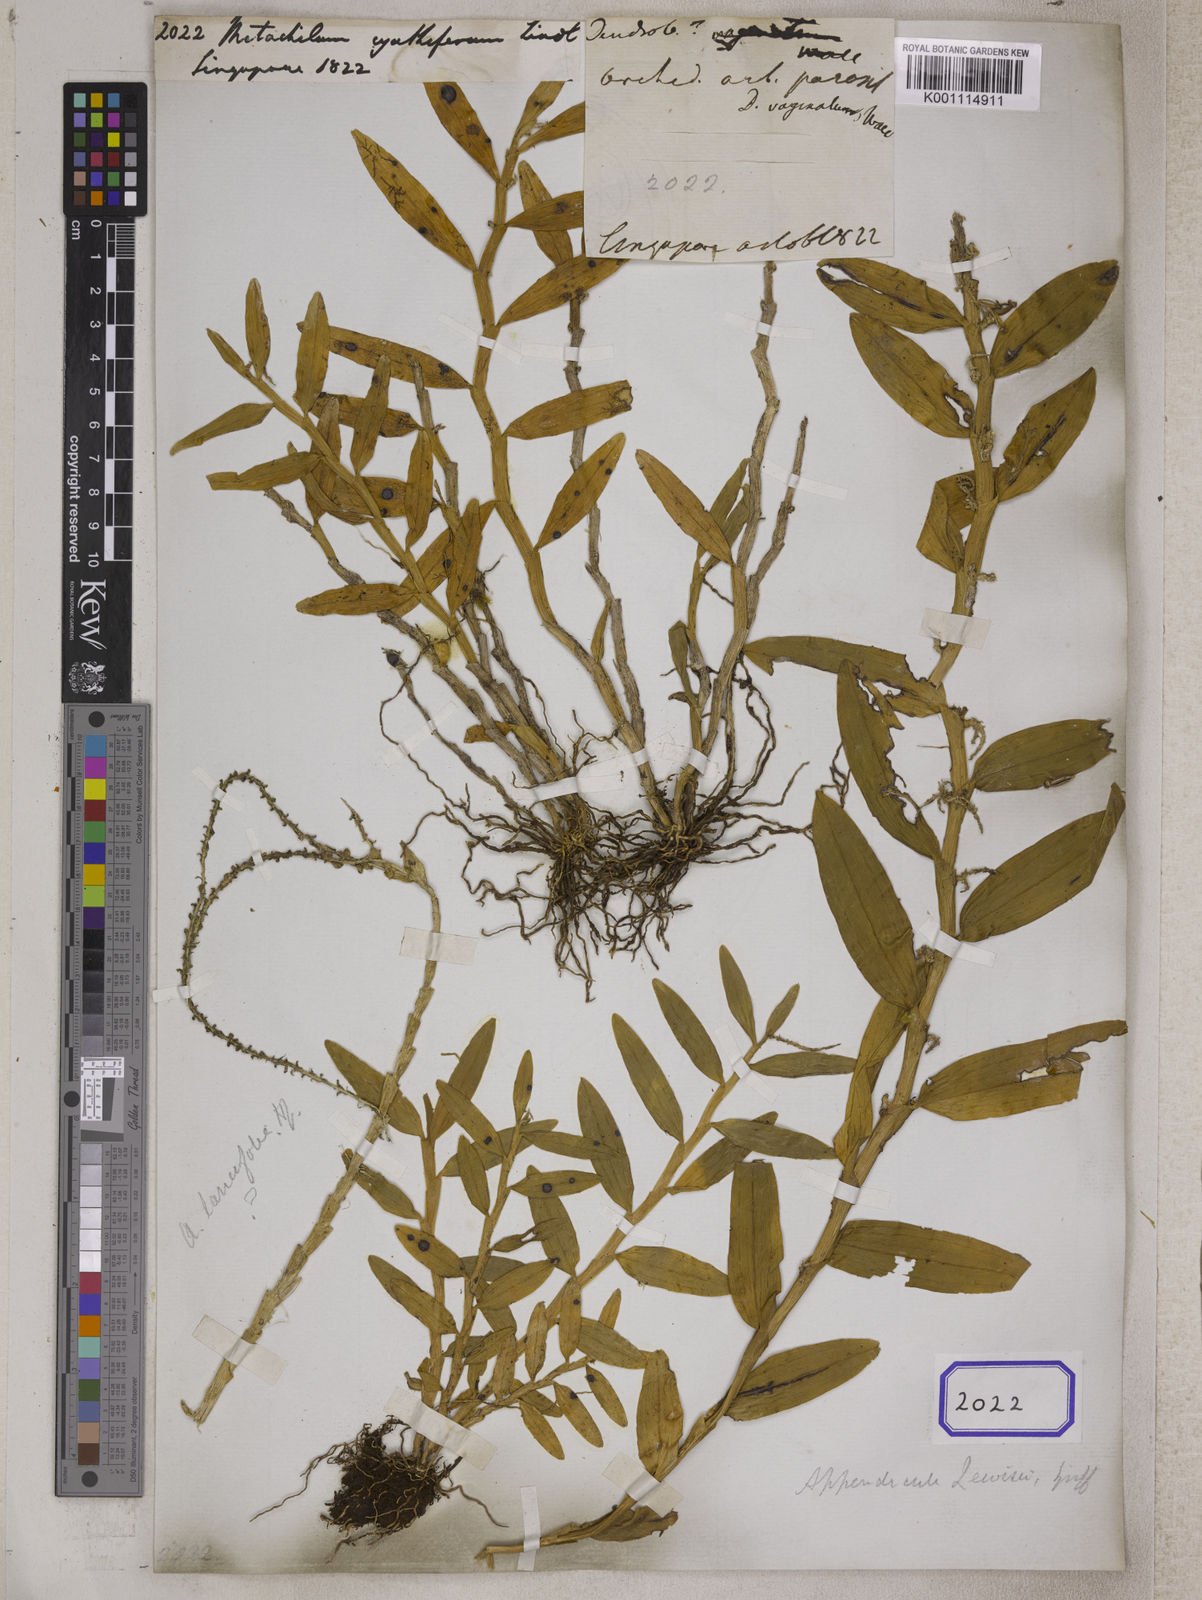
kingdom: Plantae
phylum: Tracheophyta
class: Liliopsida
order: Asparagales
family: Orchidaceae
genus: Appendicula
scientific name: Appendicula
